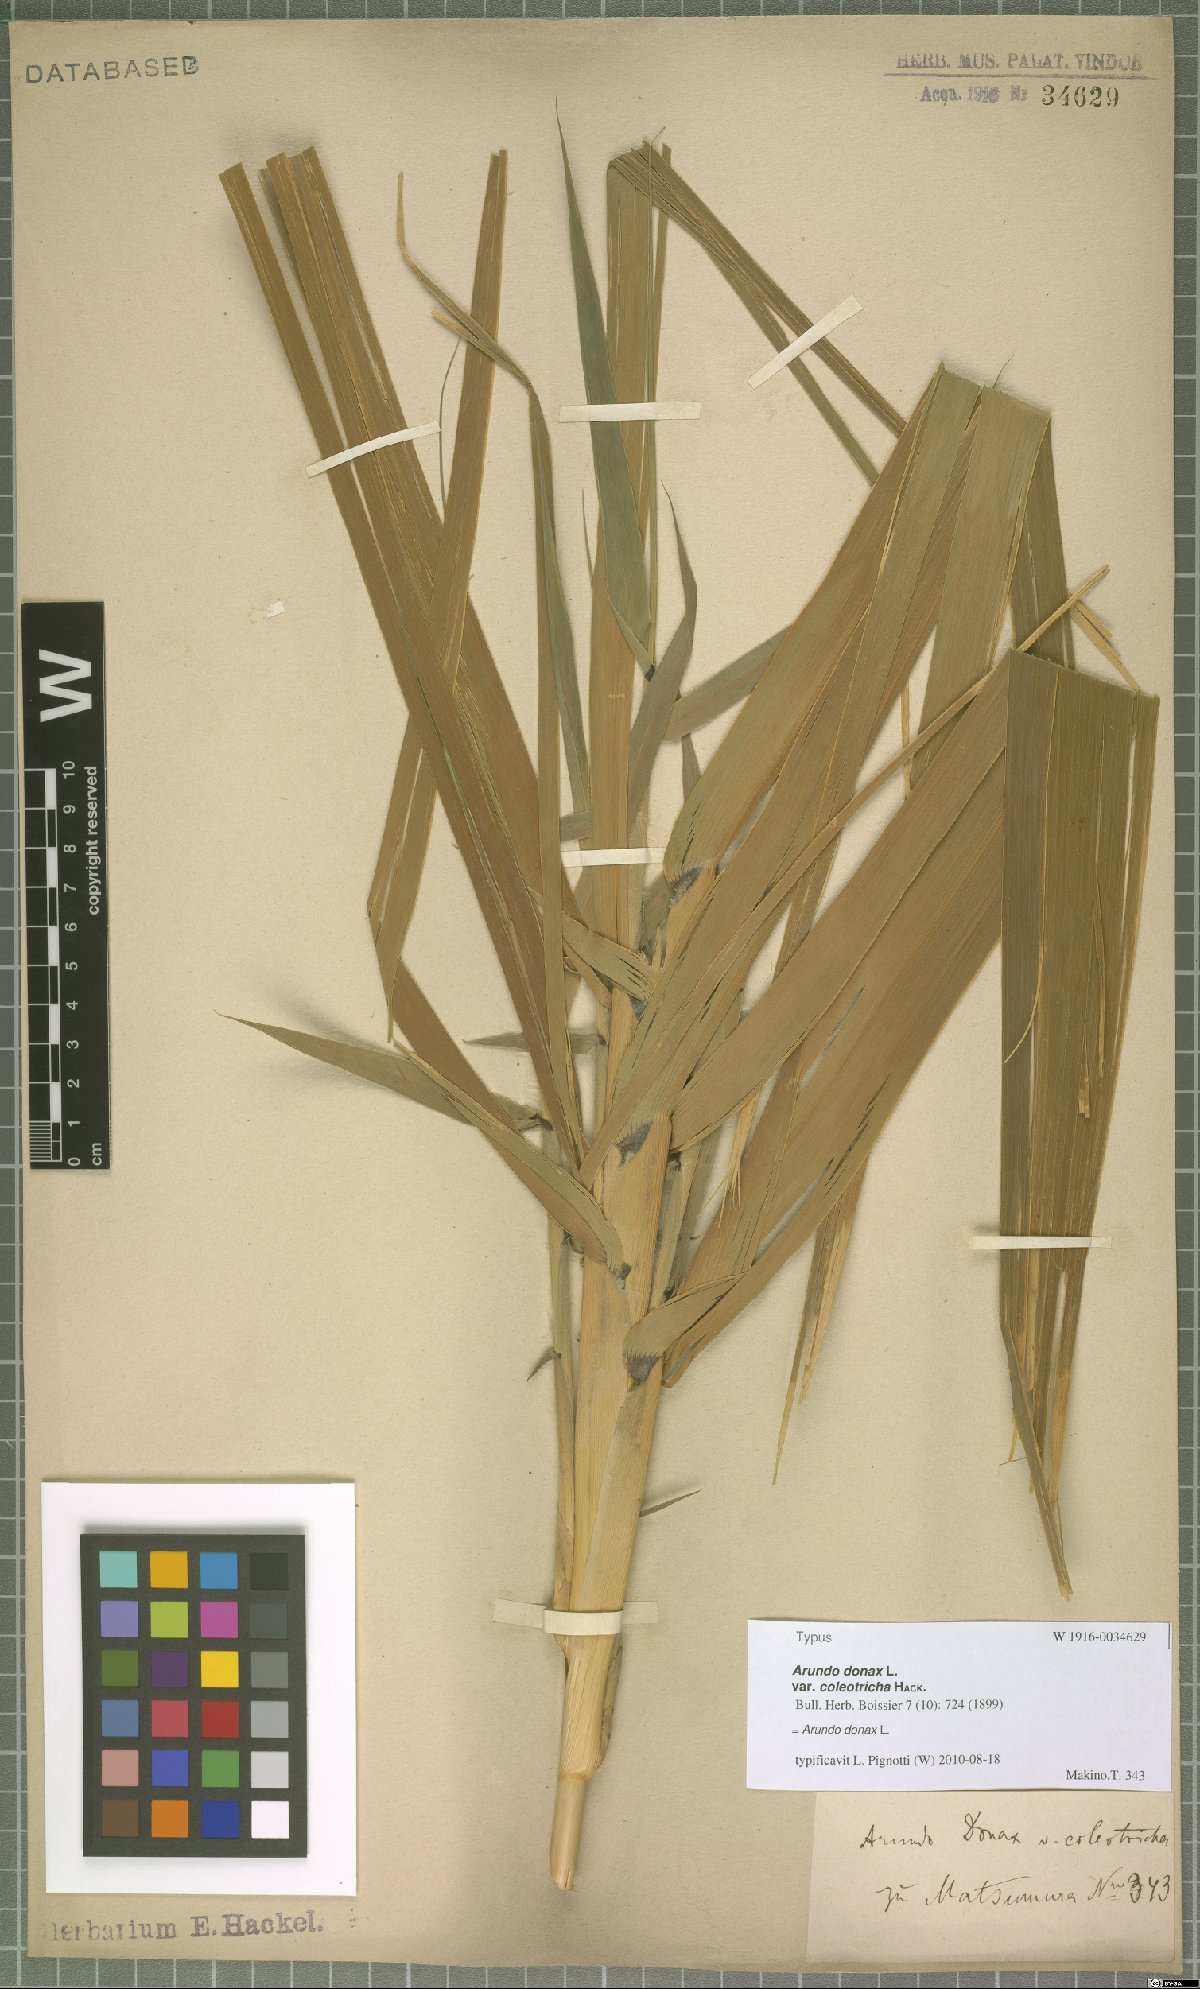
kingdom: Plantae
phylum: Tracheophyta
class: Liliopsida
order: Poales
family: Poaceae
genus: Arundo
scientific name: Arundo donax
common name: Giant reed
